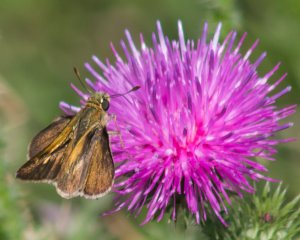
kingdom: Animalia
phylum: Arthropoda
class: Insecta
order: Lepidoptera
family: Hesperiidae
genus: Wallengrenia
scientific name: Wallengrenia
